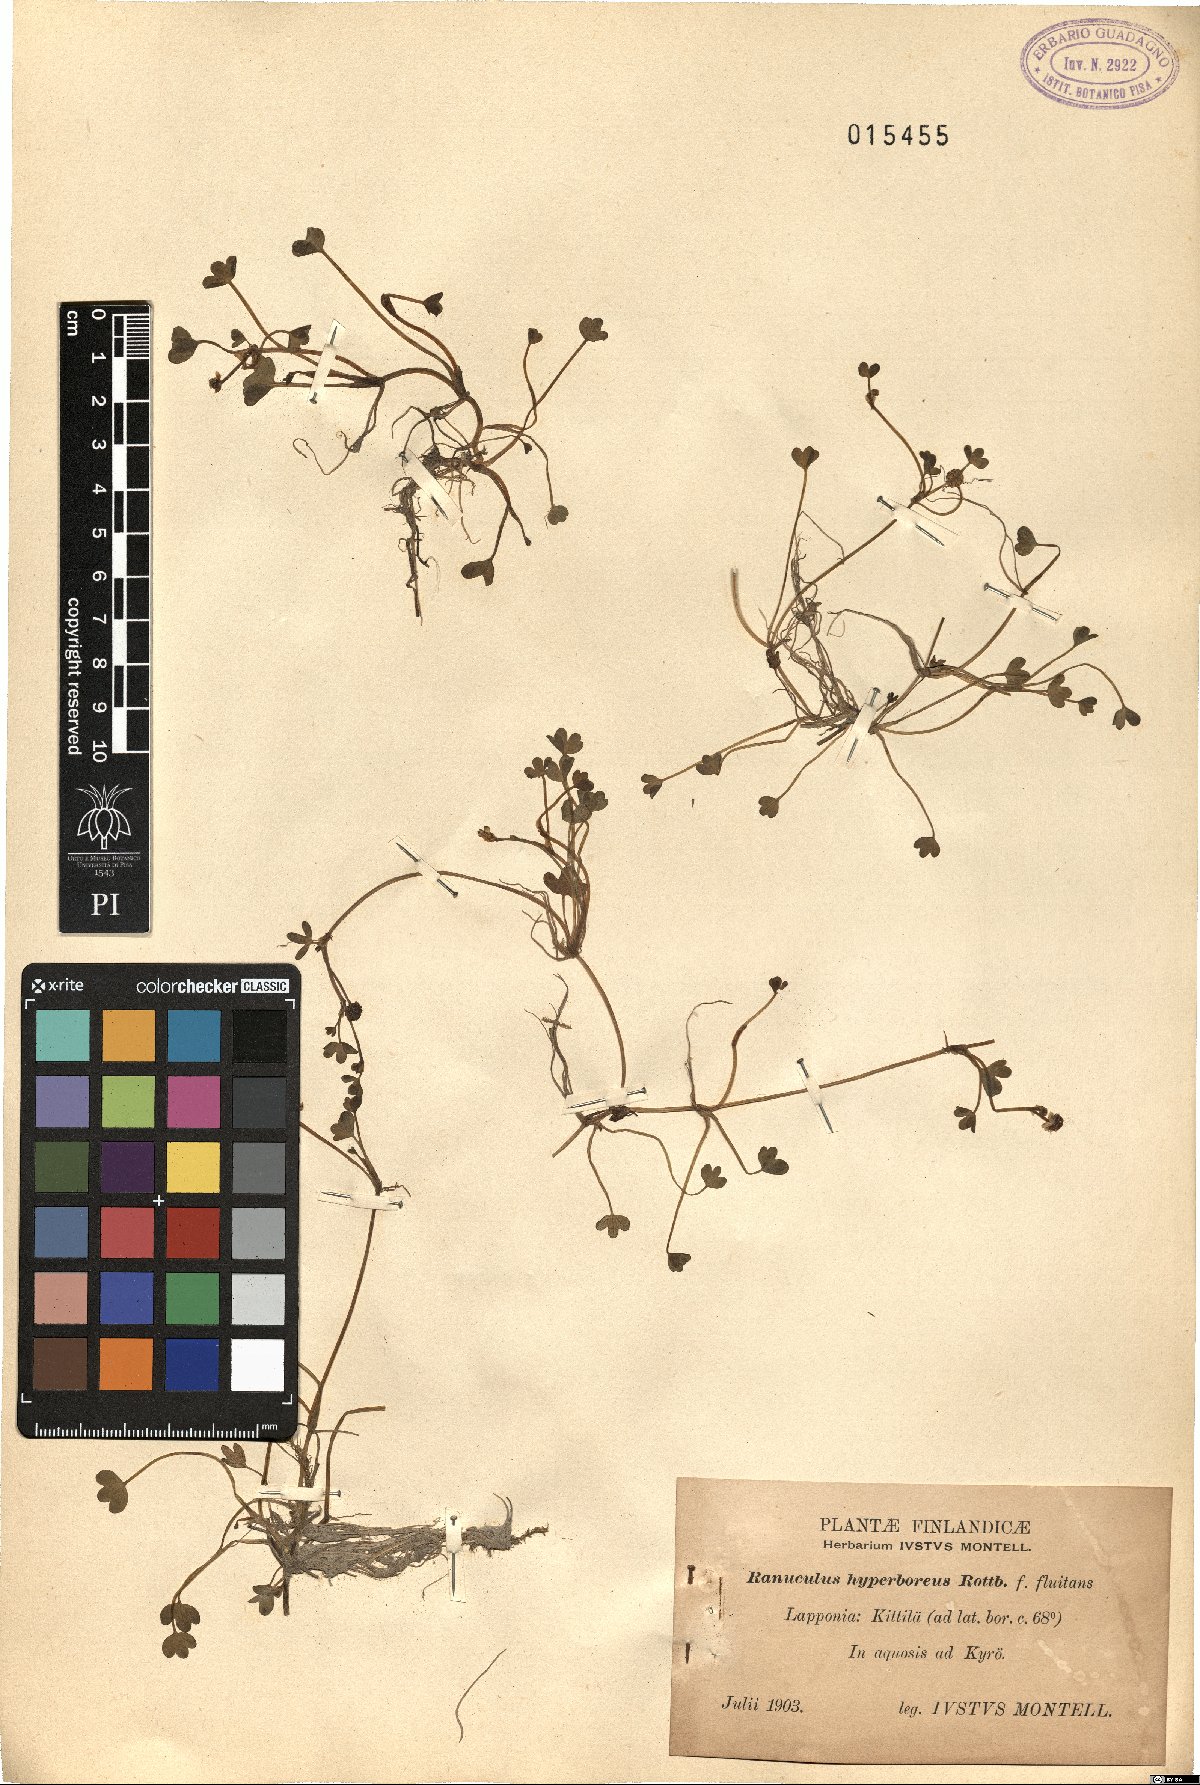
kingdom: Plantae
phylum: Tracheophyta
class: Magnoliopsida
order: Ranunculales
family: Ranunculaceae
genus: Ranunculus
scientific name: Ranunculus hyperboreus
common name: Arctic buttercup
